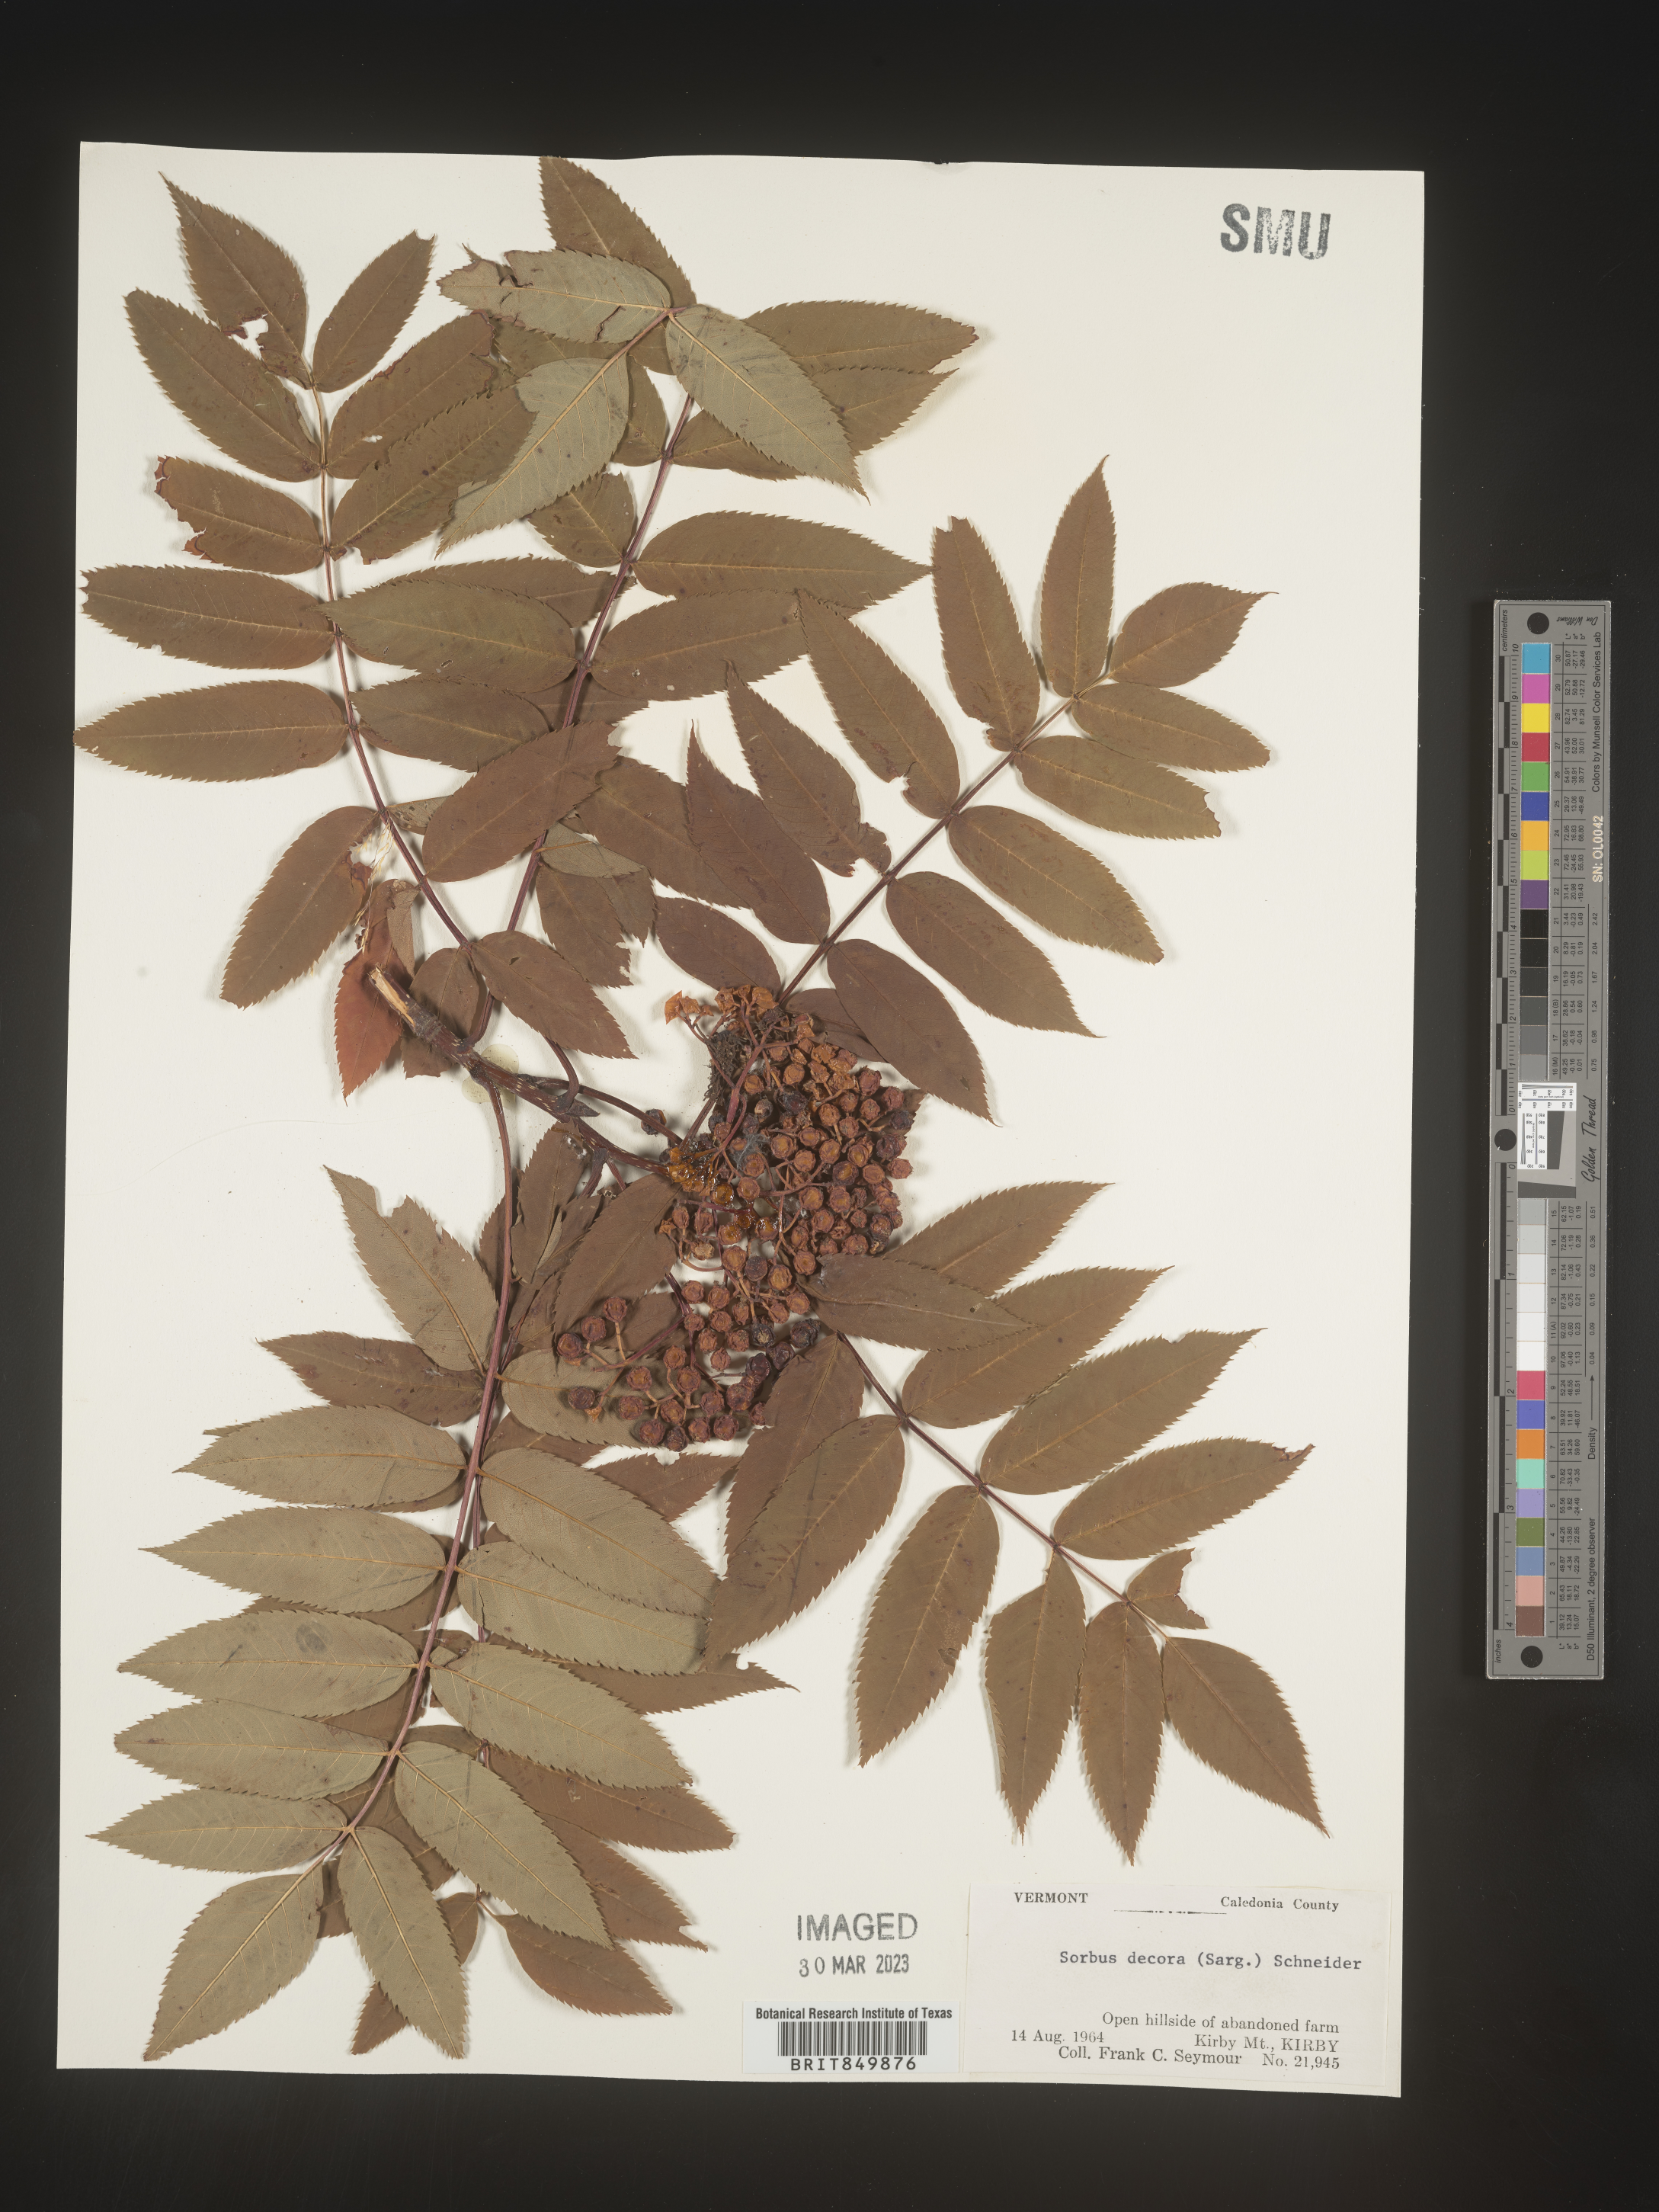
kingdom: Plantae
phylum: Tracheophyta
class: Magnoliopsida
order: Rosales
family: Rosaceae
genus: Sorbus
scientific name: Sorbus
